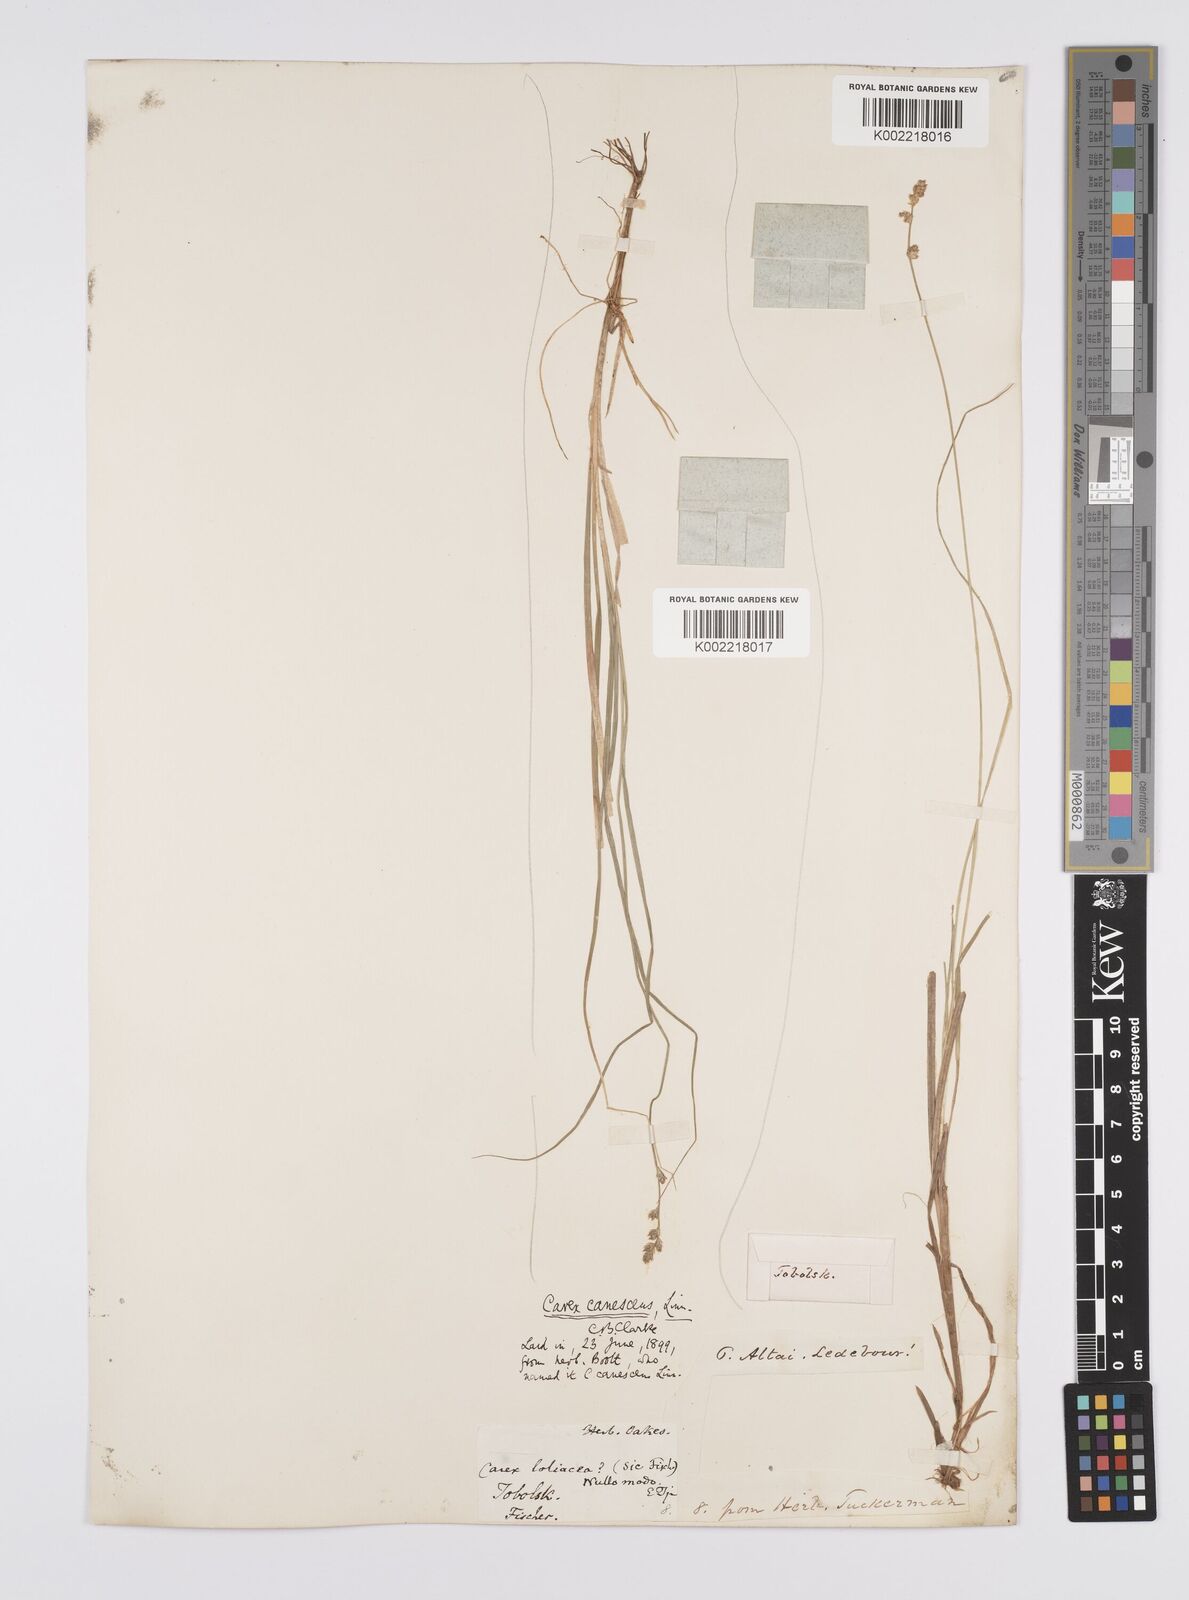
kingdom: Plantae
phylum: Tracheophyta
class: Liliopsida
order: Poales
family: Cyperaceae
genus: Carex
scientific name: Carex canescens
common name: White sedge
